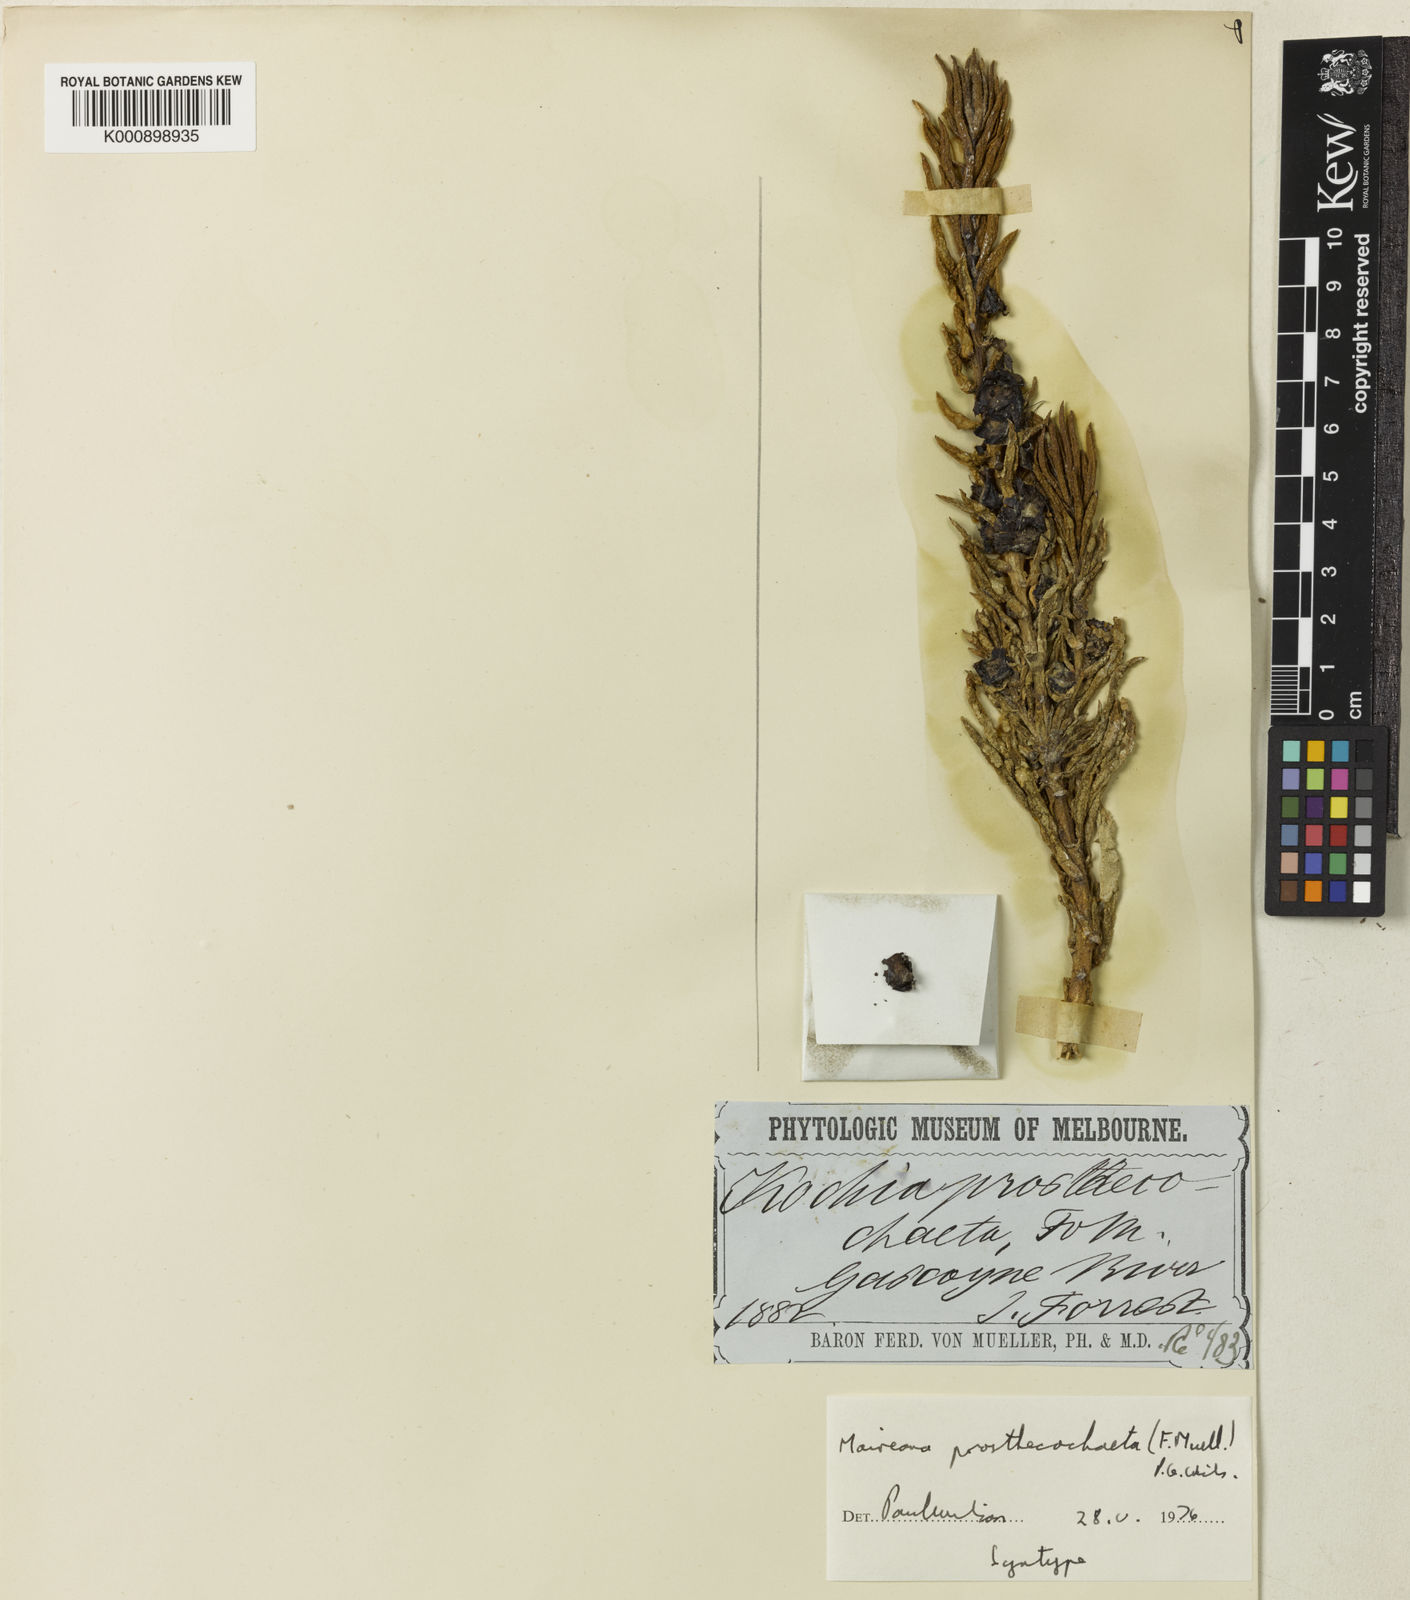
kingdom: Plantae
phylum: Tracheophyta
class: Magnoliopsida
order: Caryophyllales
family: Amaranthaceae
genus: Maireana
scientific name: Maireana
